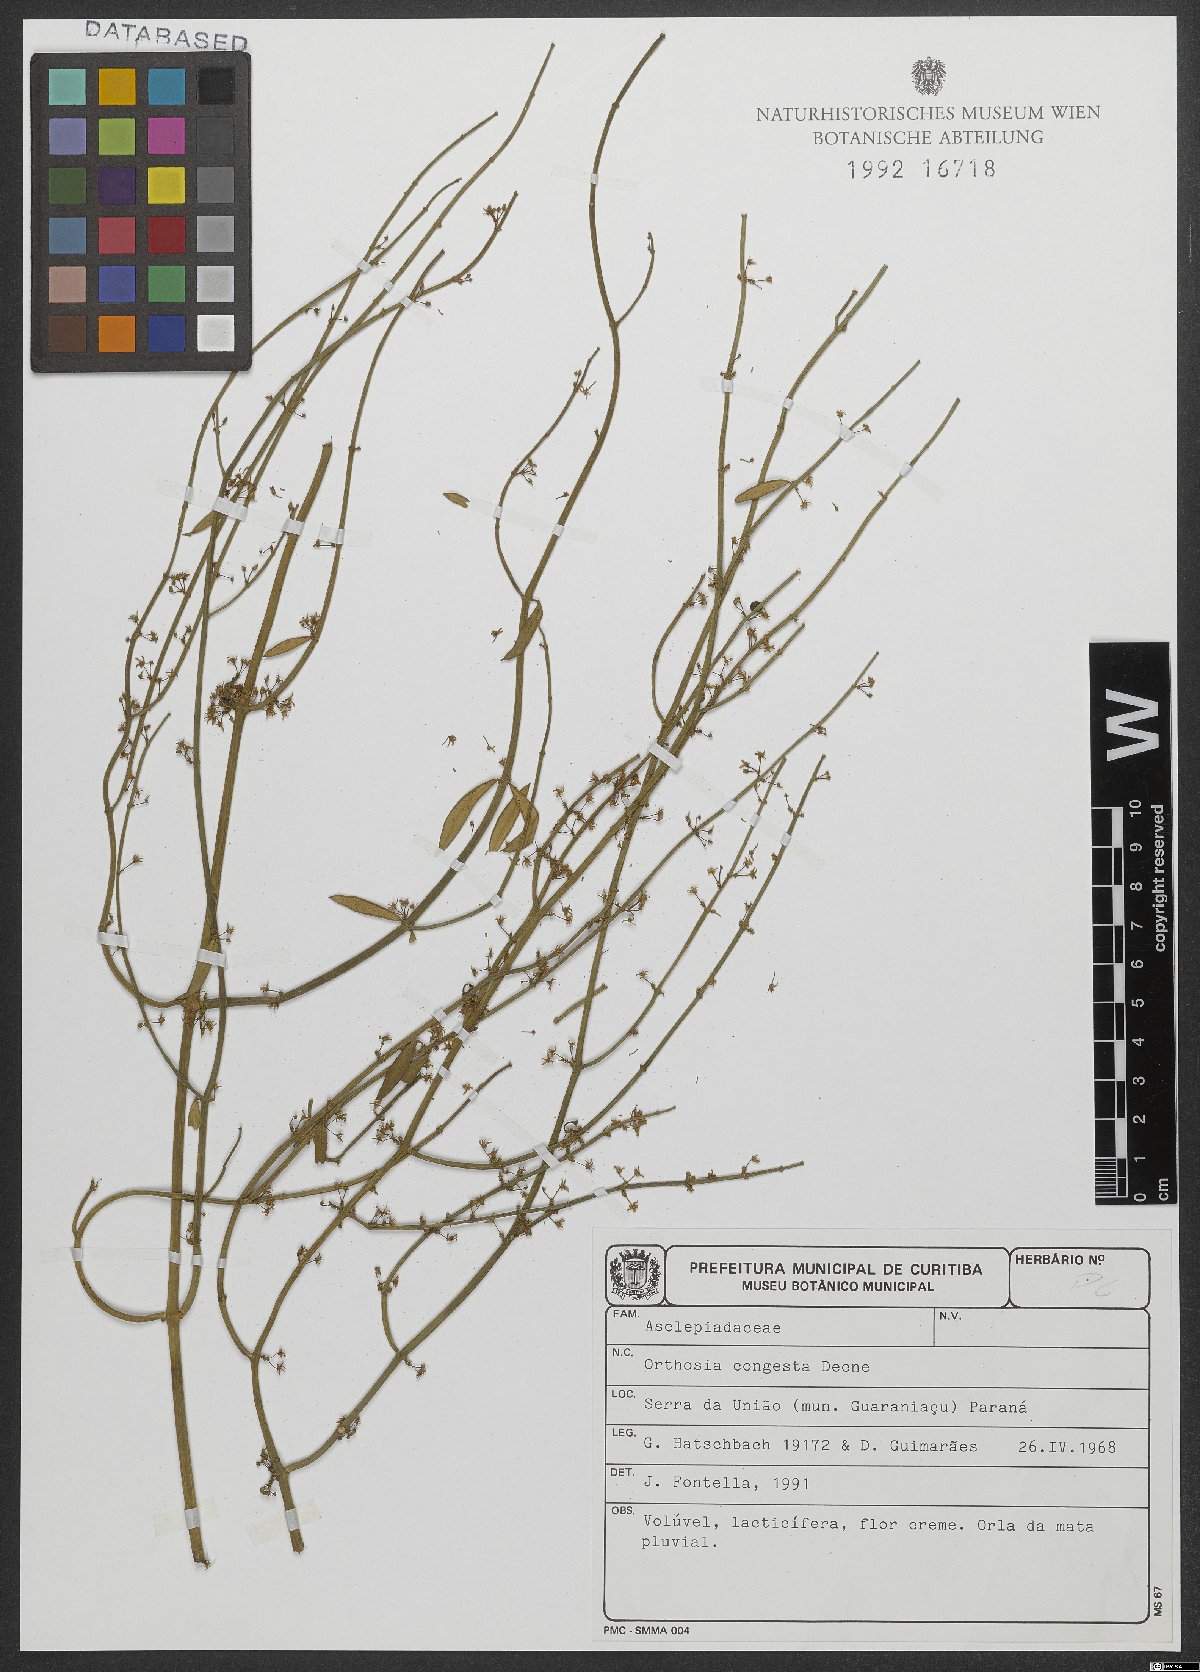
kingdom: Plantae
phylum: Tracheophyta
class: Magnoliopsida
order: Gentianales
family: Apocynaceae
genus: Orthosia
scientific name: Orthosia congesta
